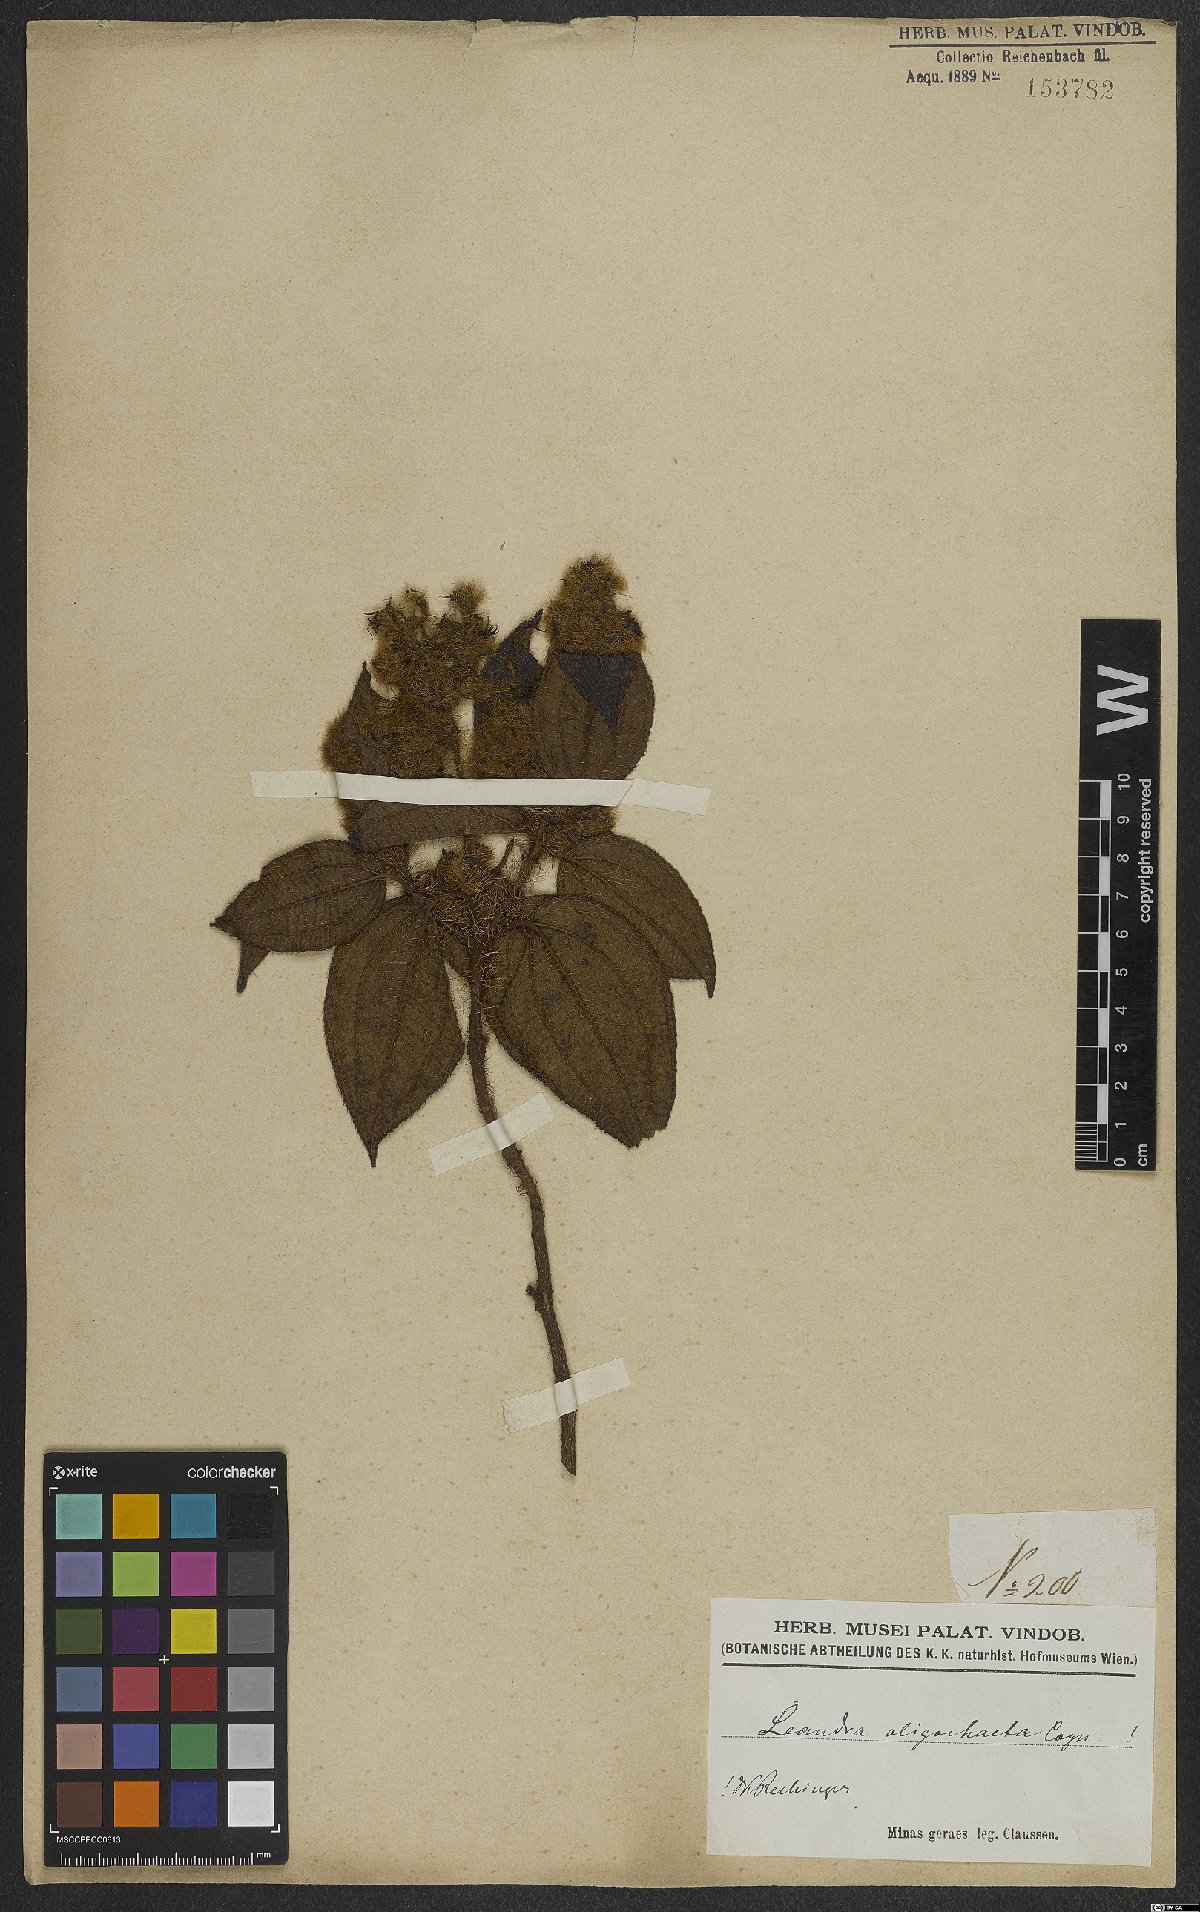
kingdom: Plantae
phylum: Tracheophyta
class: Magnoliopsida
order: Myrtales
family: Melastomataceae
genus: Miconia
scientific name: Miconia oligochaeta
